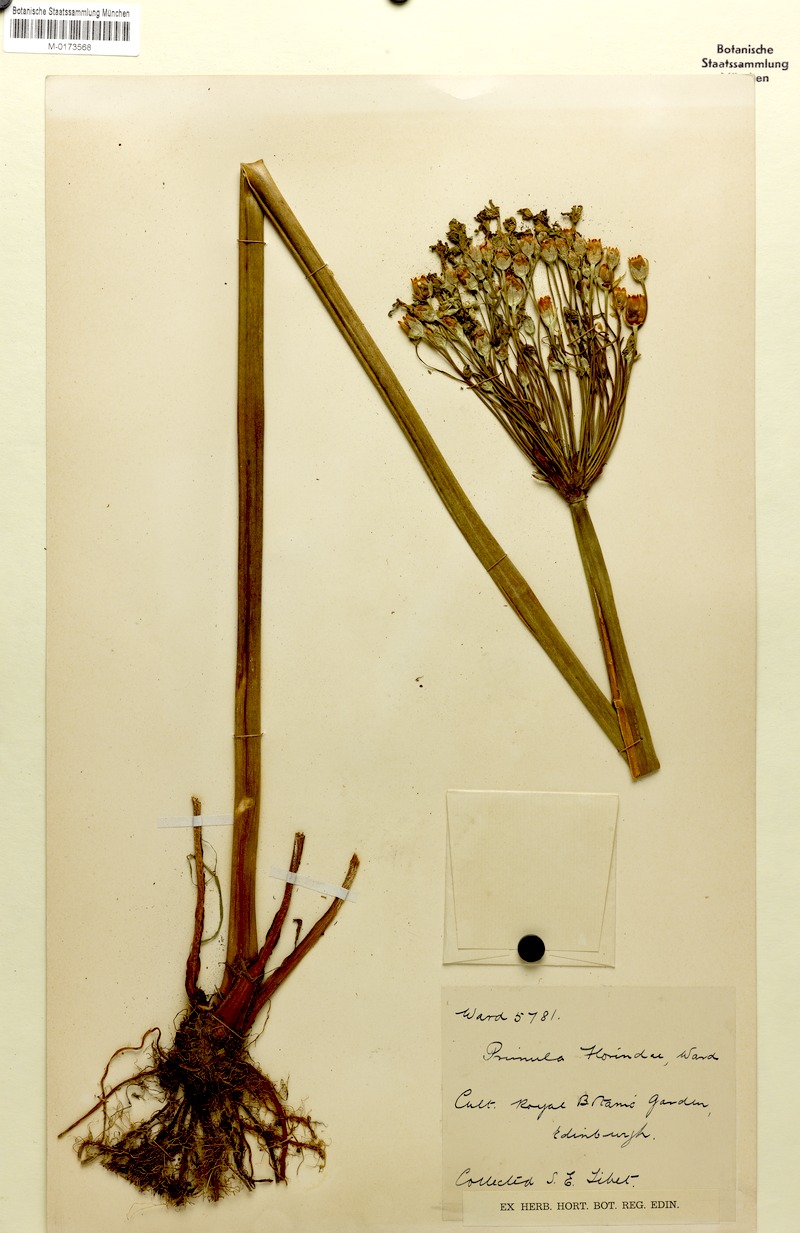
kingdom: Plantae
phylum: Tracheophyta
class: Magnoliopsida
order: Ericales
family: Primulaceae
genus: Primula
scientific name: Primula florindae
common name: Tibetan cowslip
